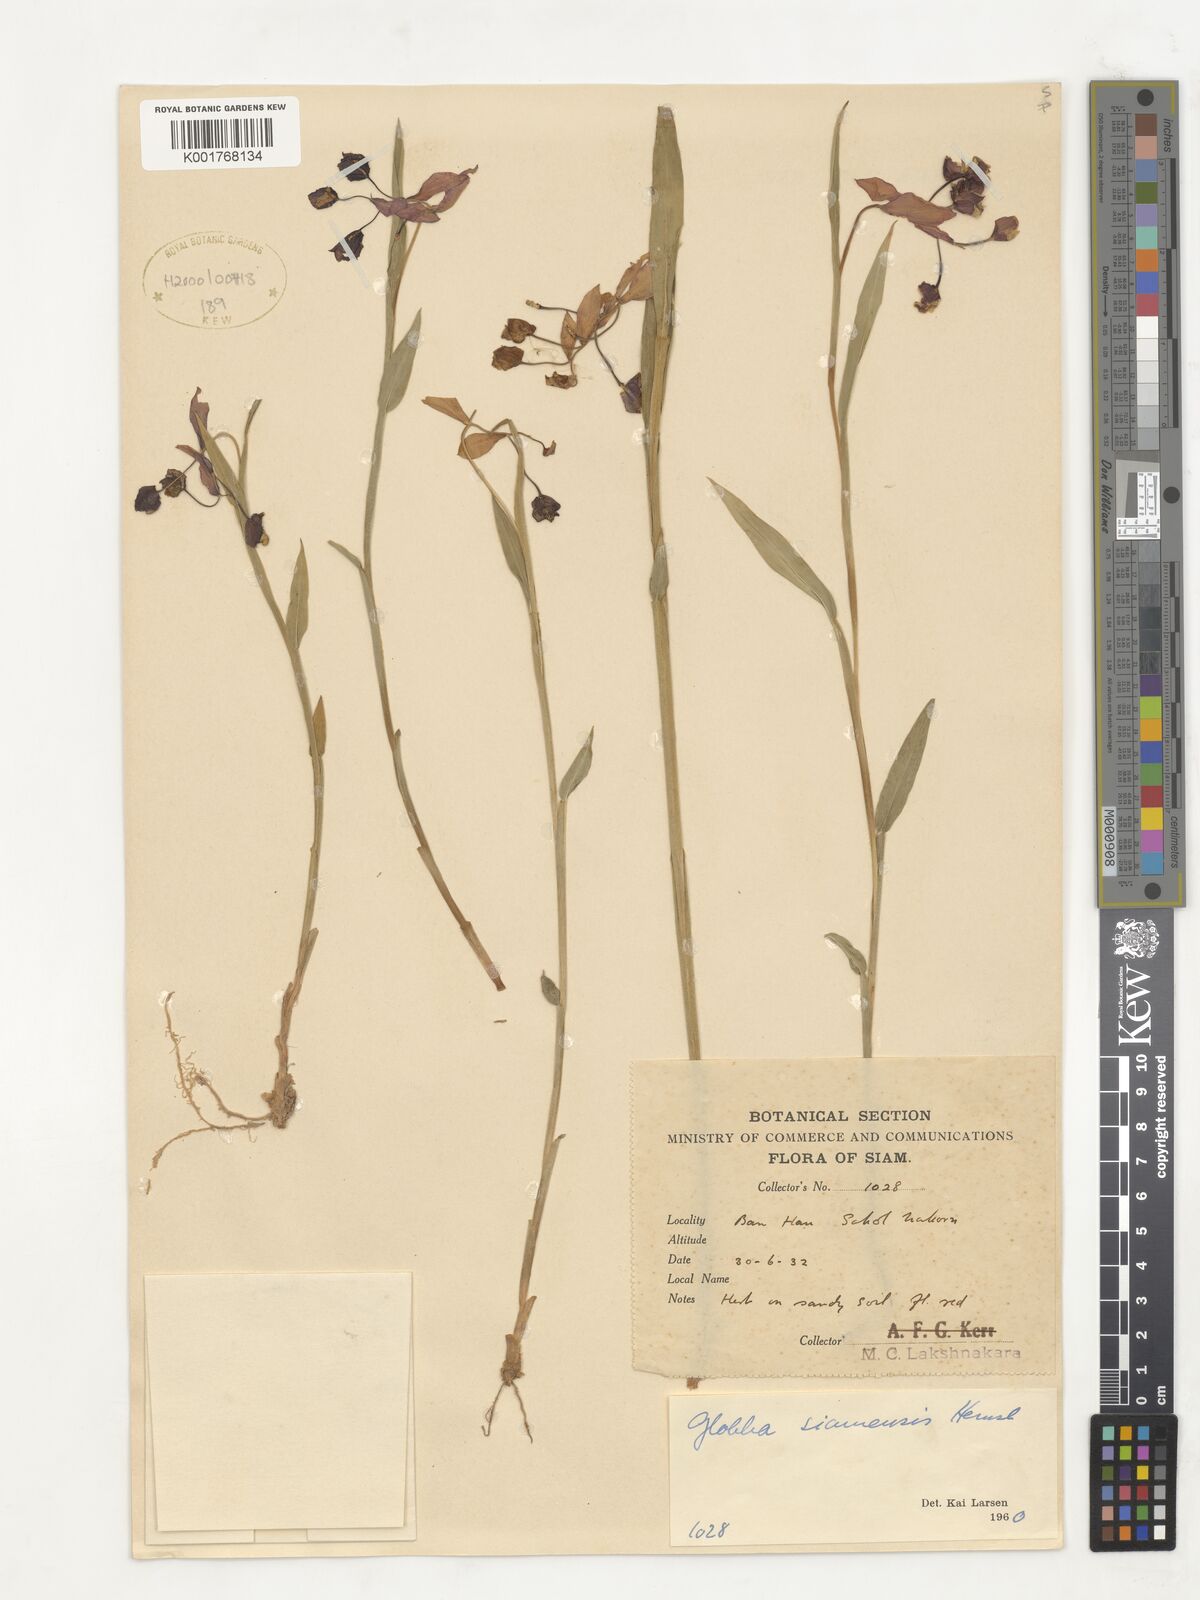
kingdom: Plantae
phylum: Tracheophyta
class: Liliopsida
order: Zingiberales
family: Zingiberaceae
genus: Globba
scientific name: Globba siamensis
